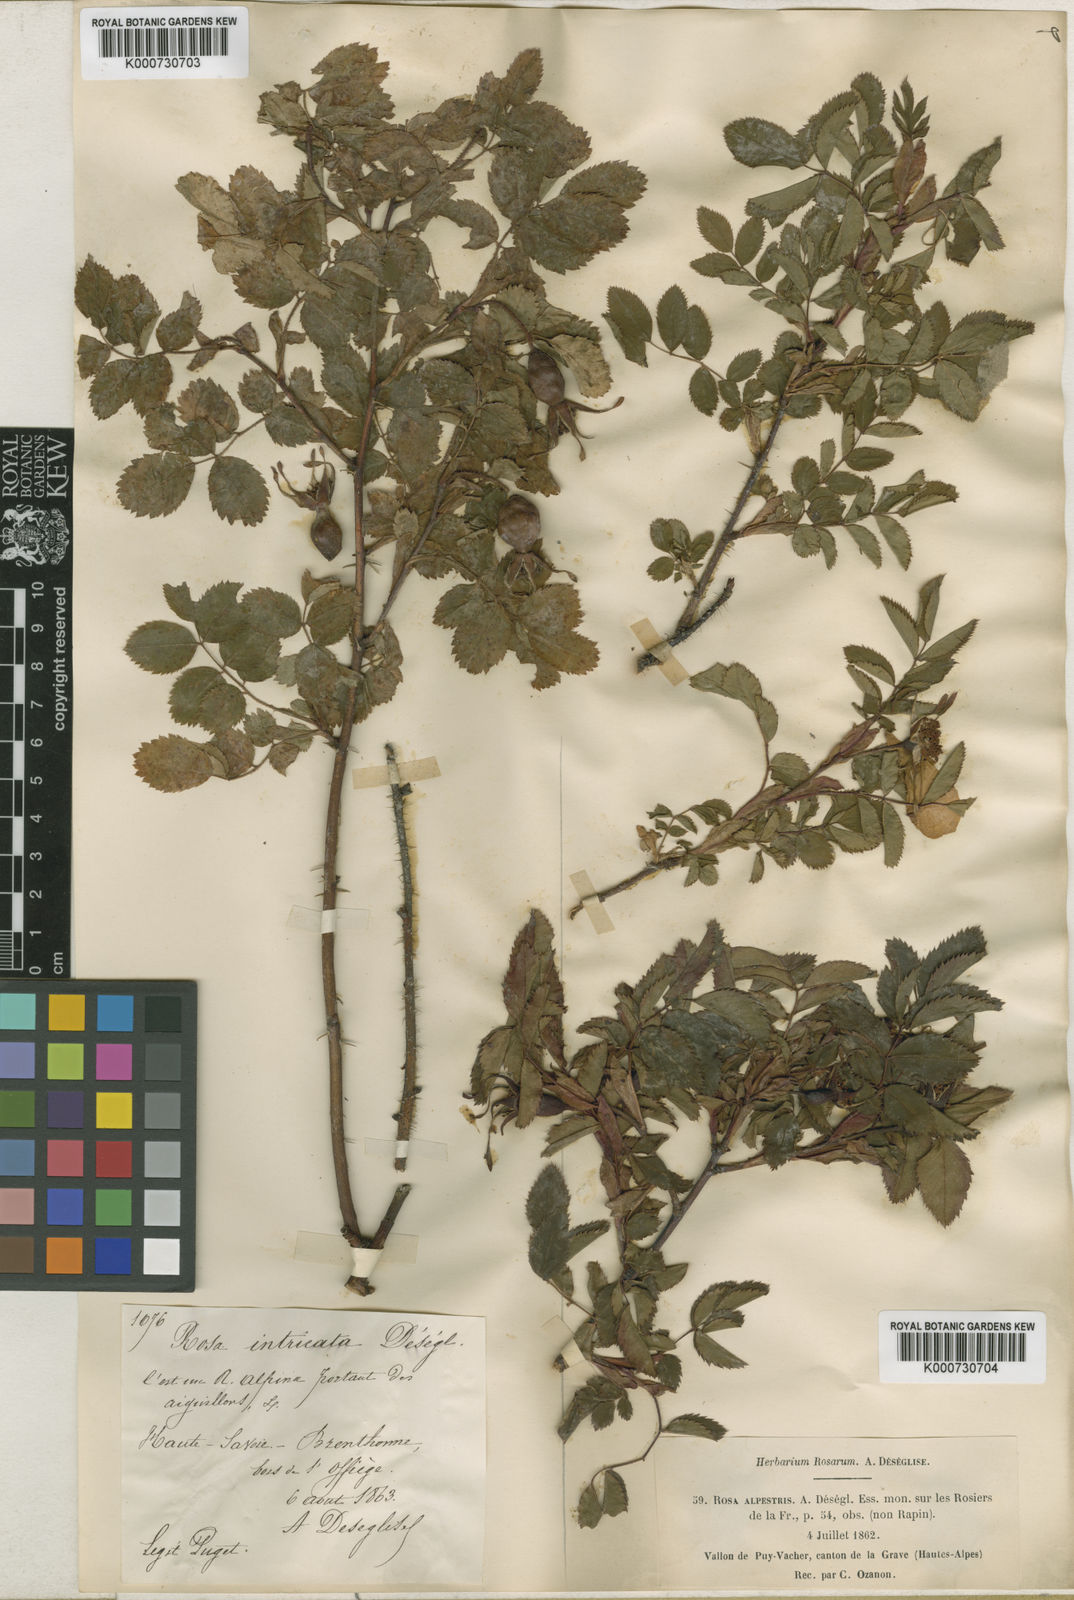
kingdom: Plantae
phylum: Tracheophyta
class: Magnoliopsida
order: Rosales
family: Rosaceae
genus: Rosa
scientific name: Rosa
